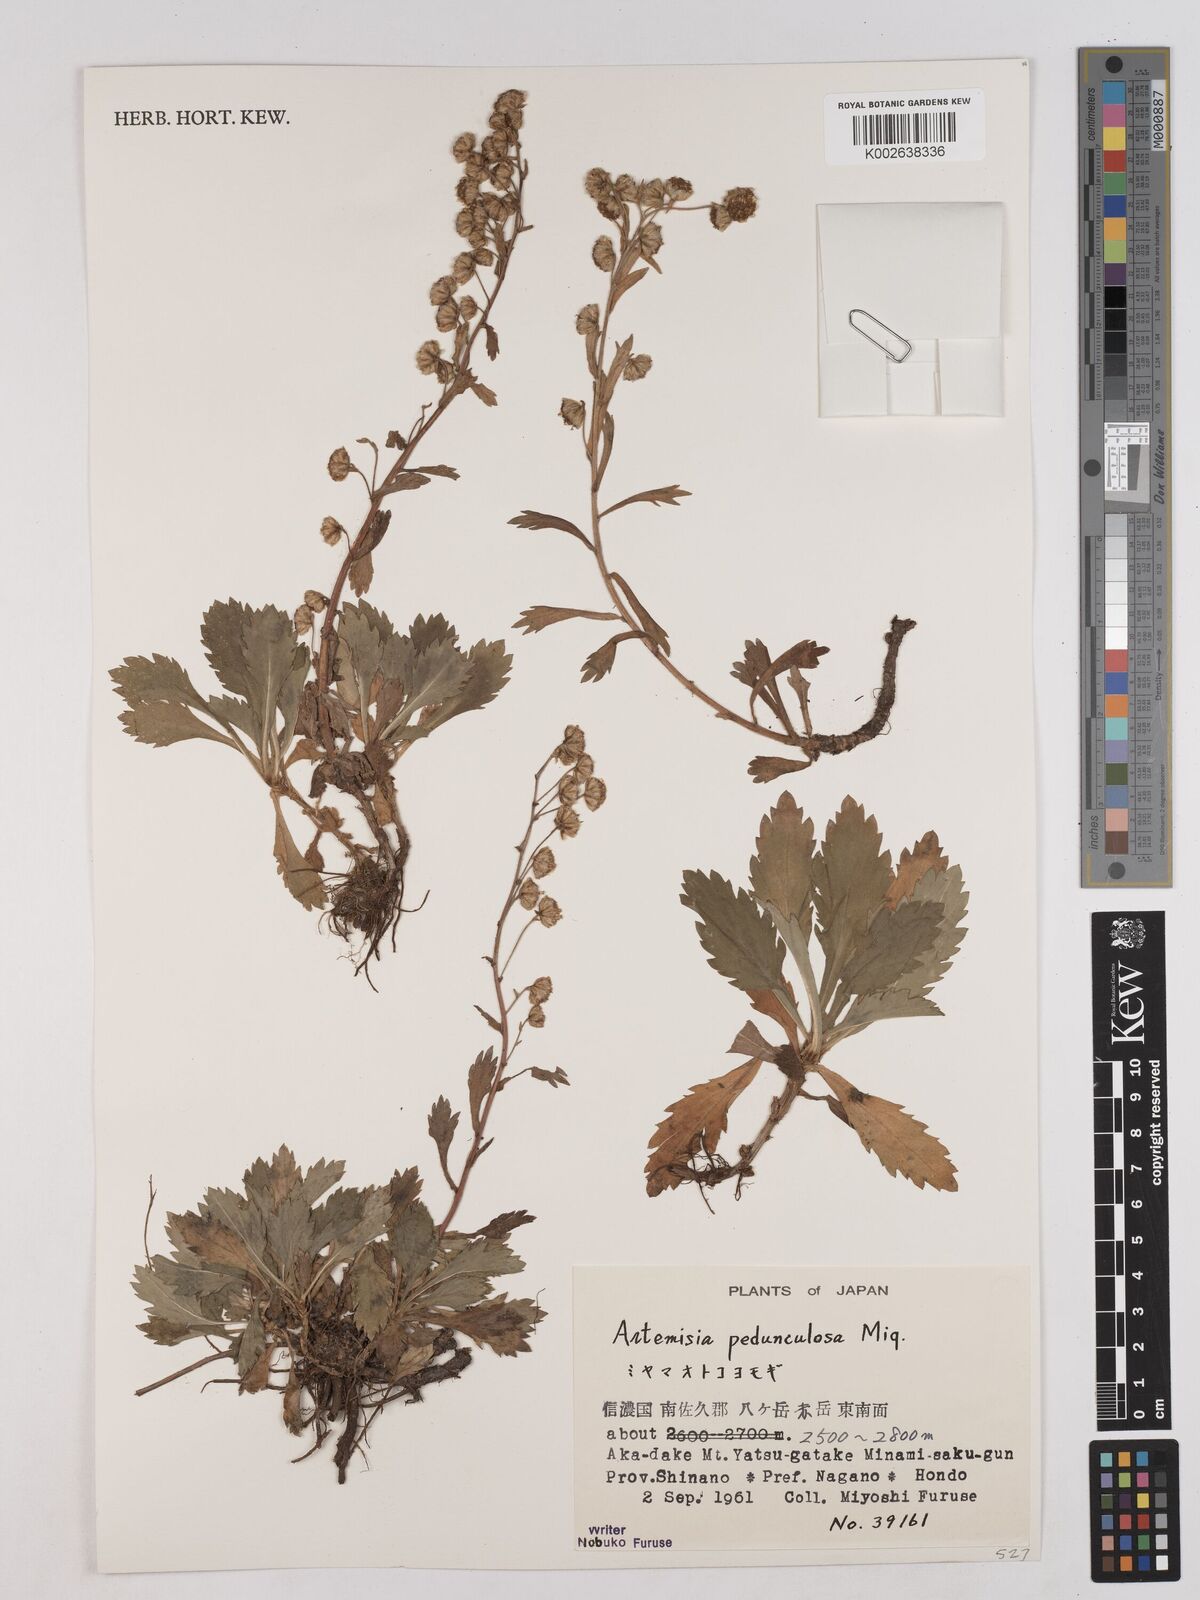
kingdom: Plantae
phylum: Tracheophyta
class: Magnoliopsida
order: Asterales
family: Asteraceae
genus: Artemisia
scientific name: Artemisia pedunculosa
